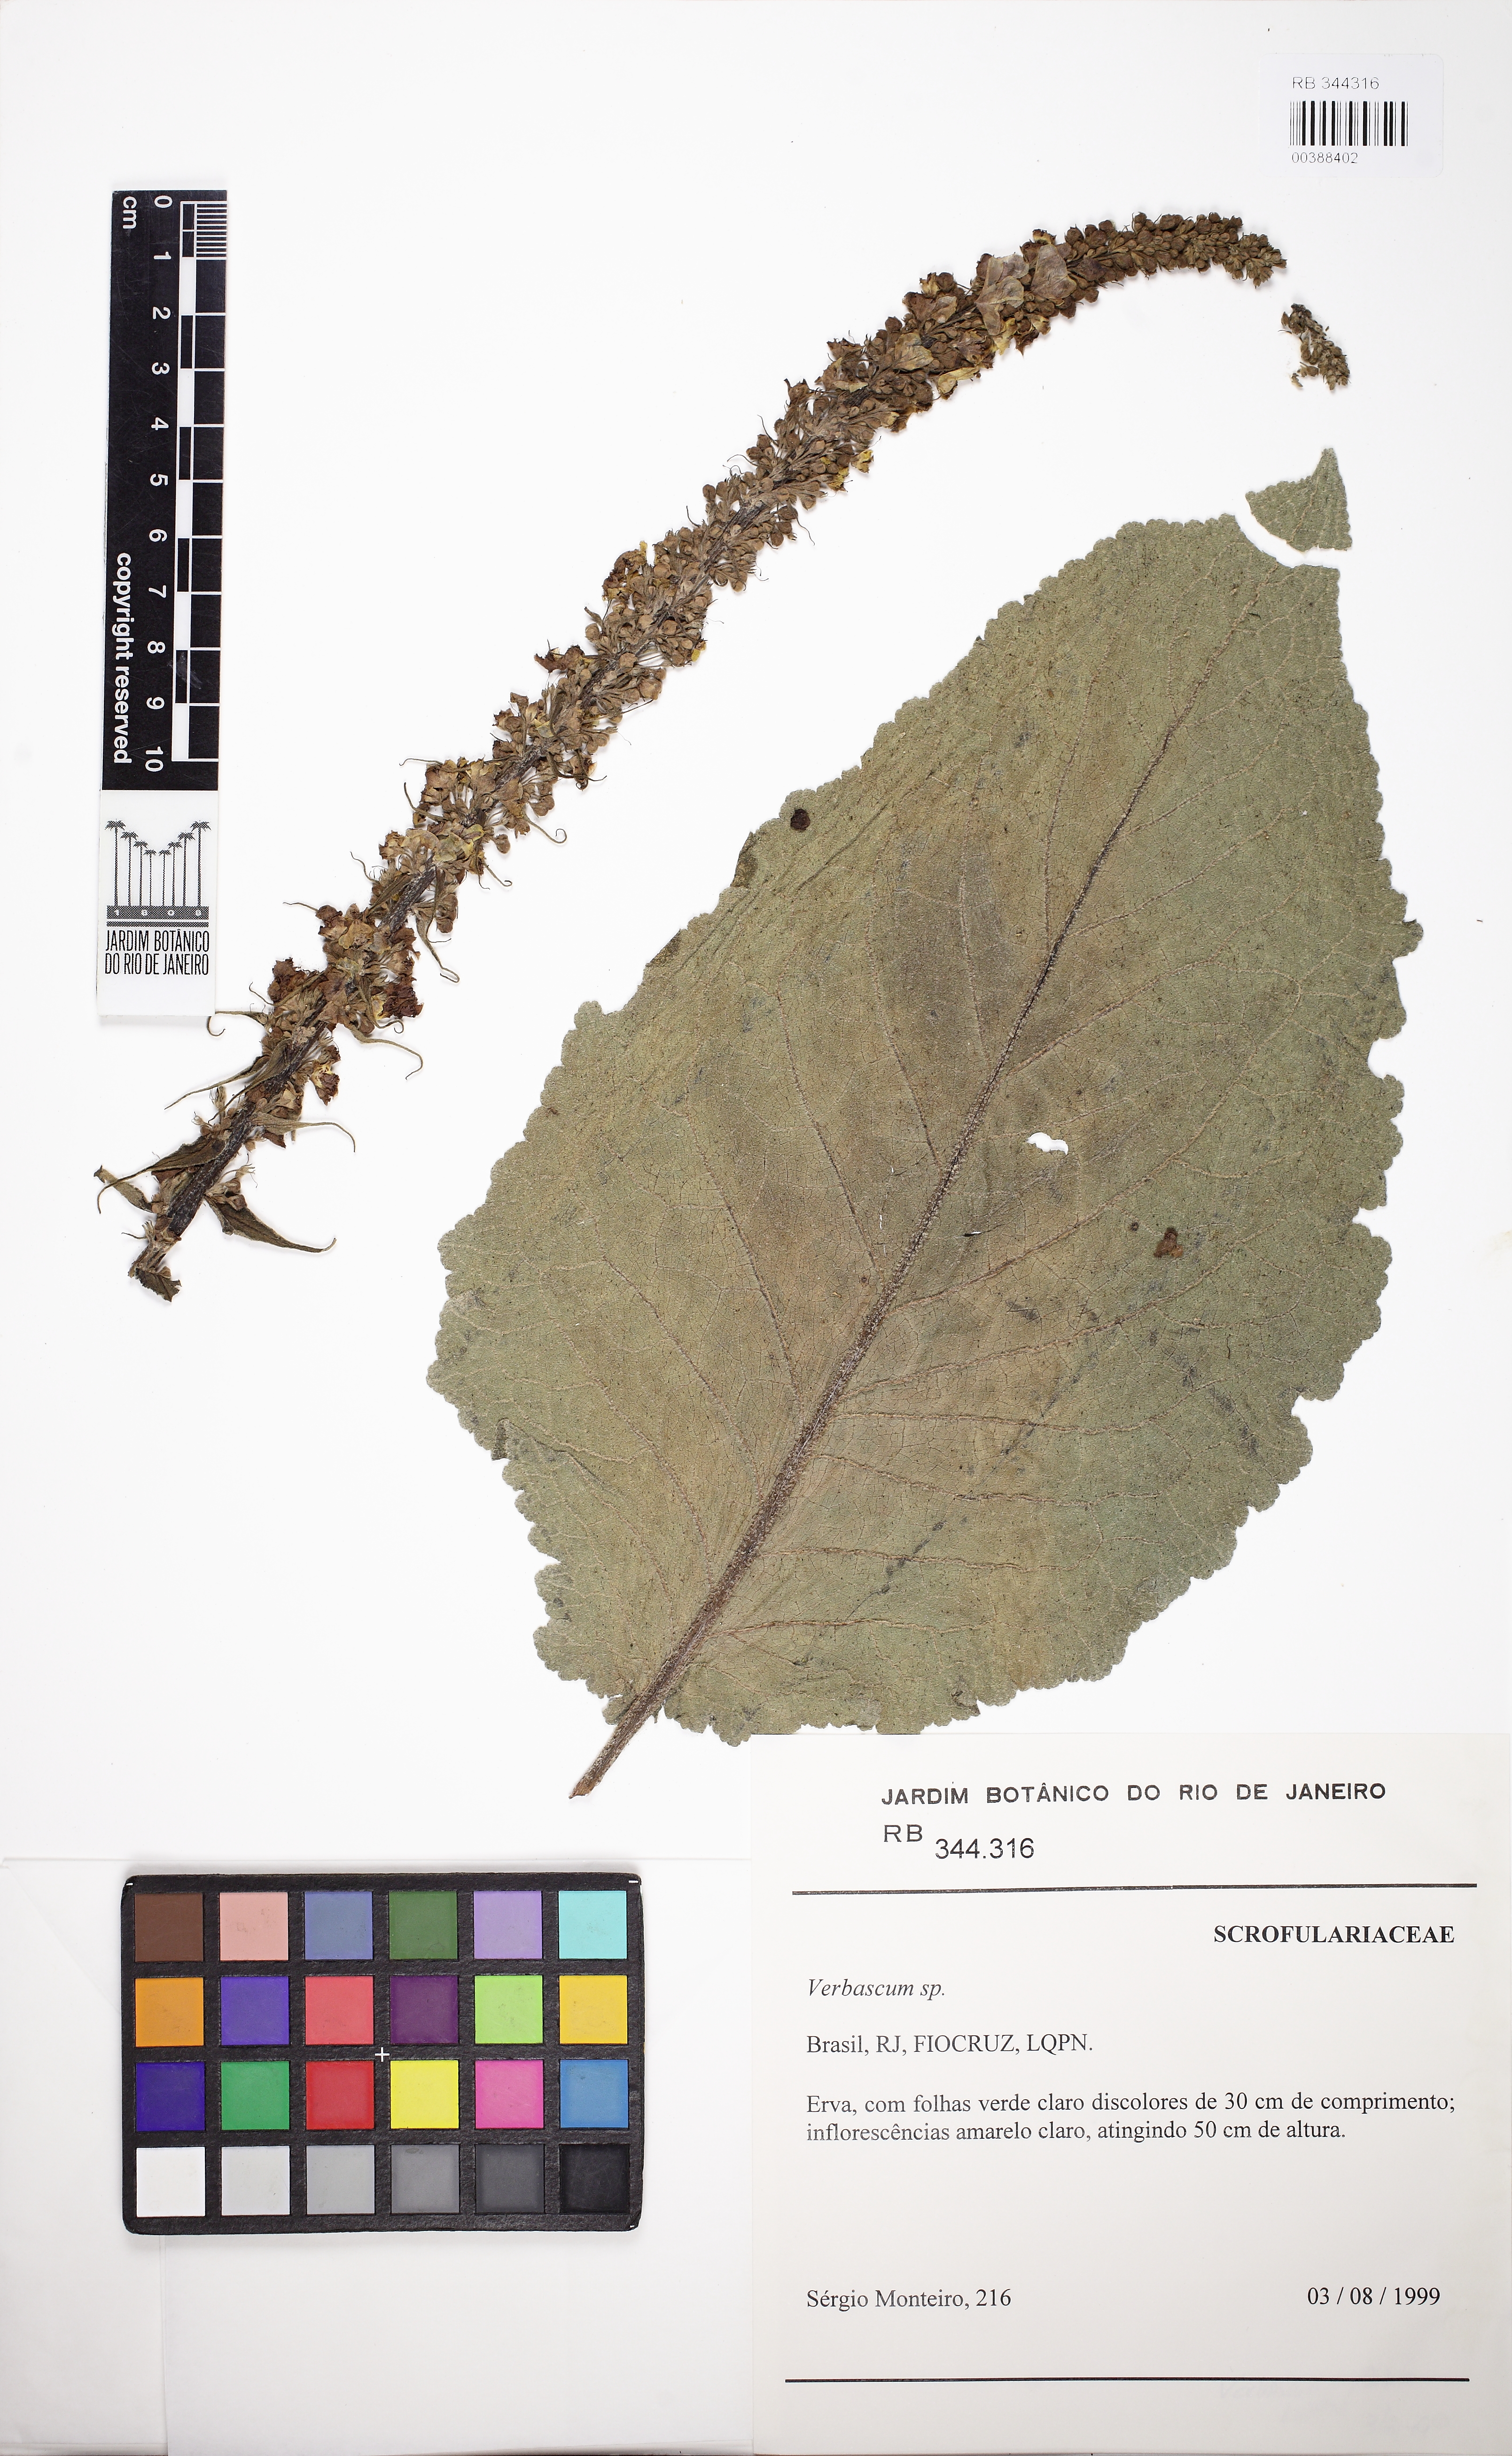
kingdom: Plantae
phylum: Tracheophyta
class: Magnoliopsida
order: Lamiales
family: Scrophulariaceae
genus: Verbascum
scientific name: Verbascum
